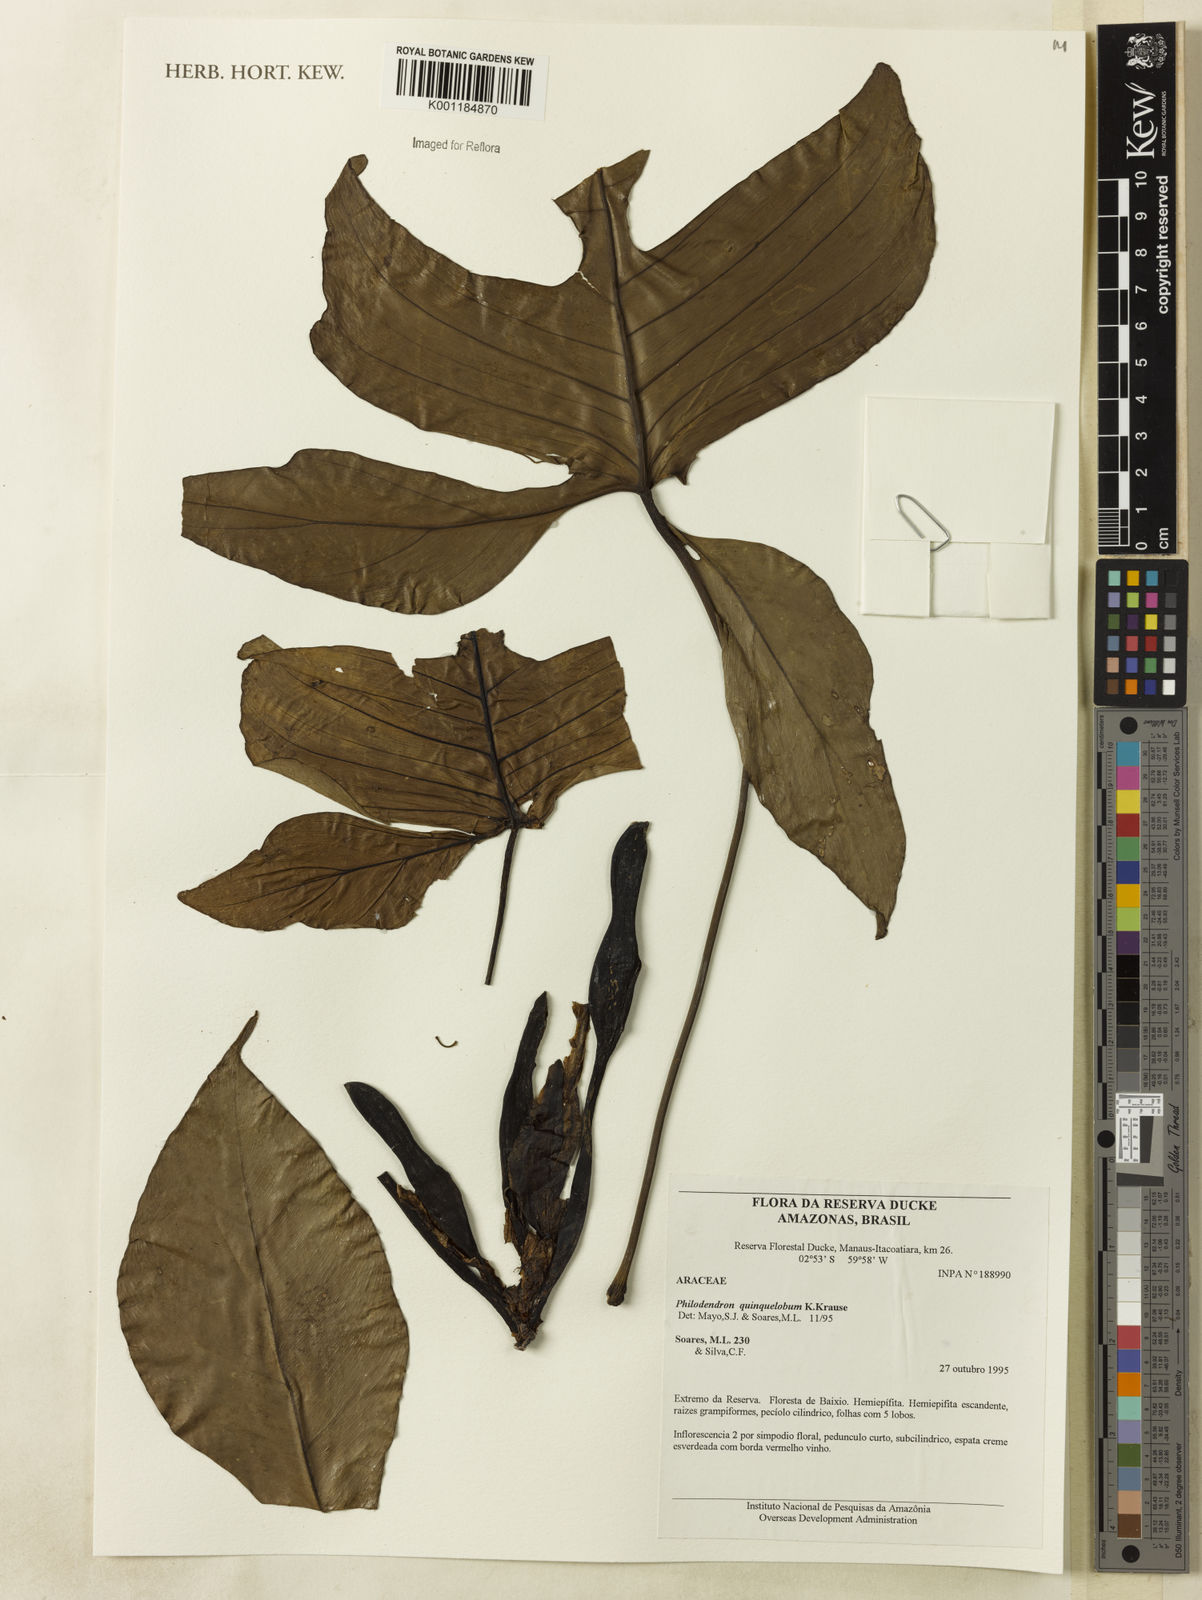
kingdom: Plantae
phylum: Tracheophyta
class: Liliopsida
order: Alismatales
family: Araceae
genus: Philodendron
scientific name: Philodendron quinquelobum
